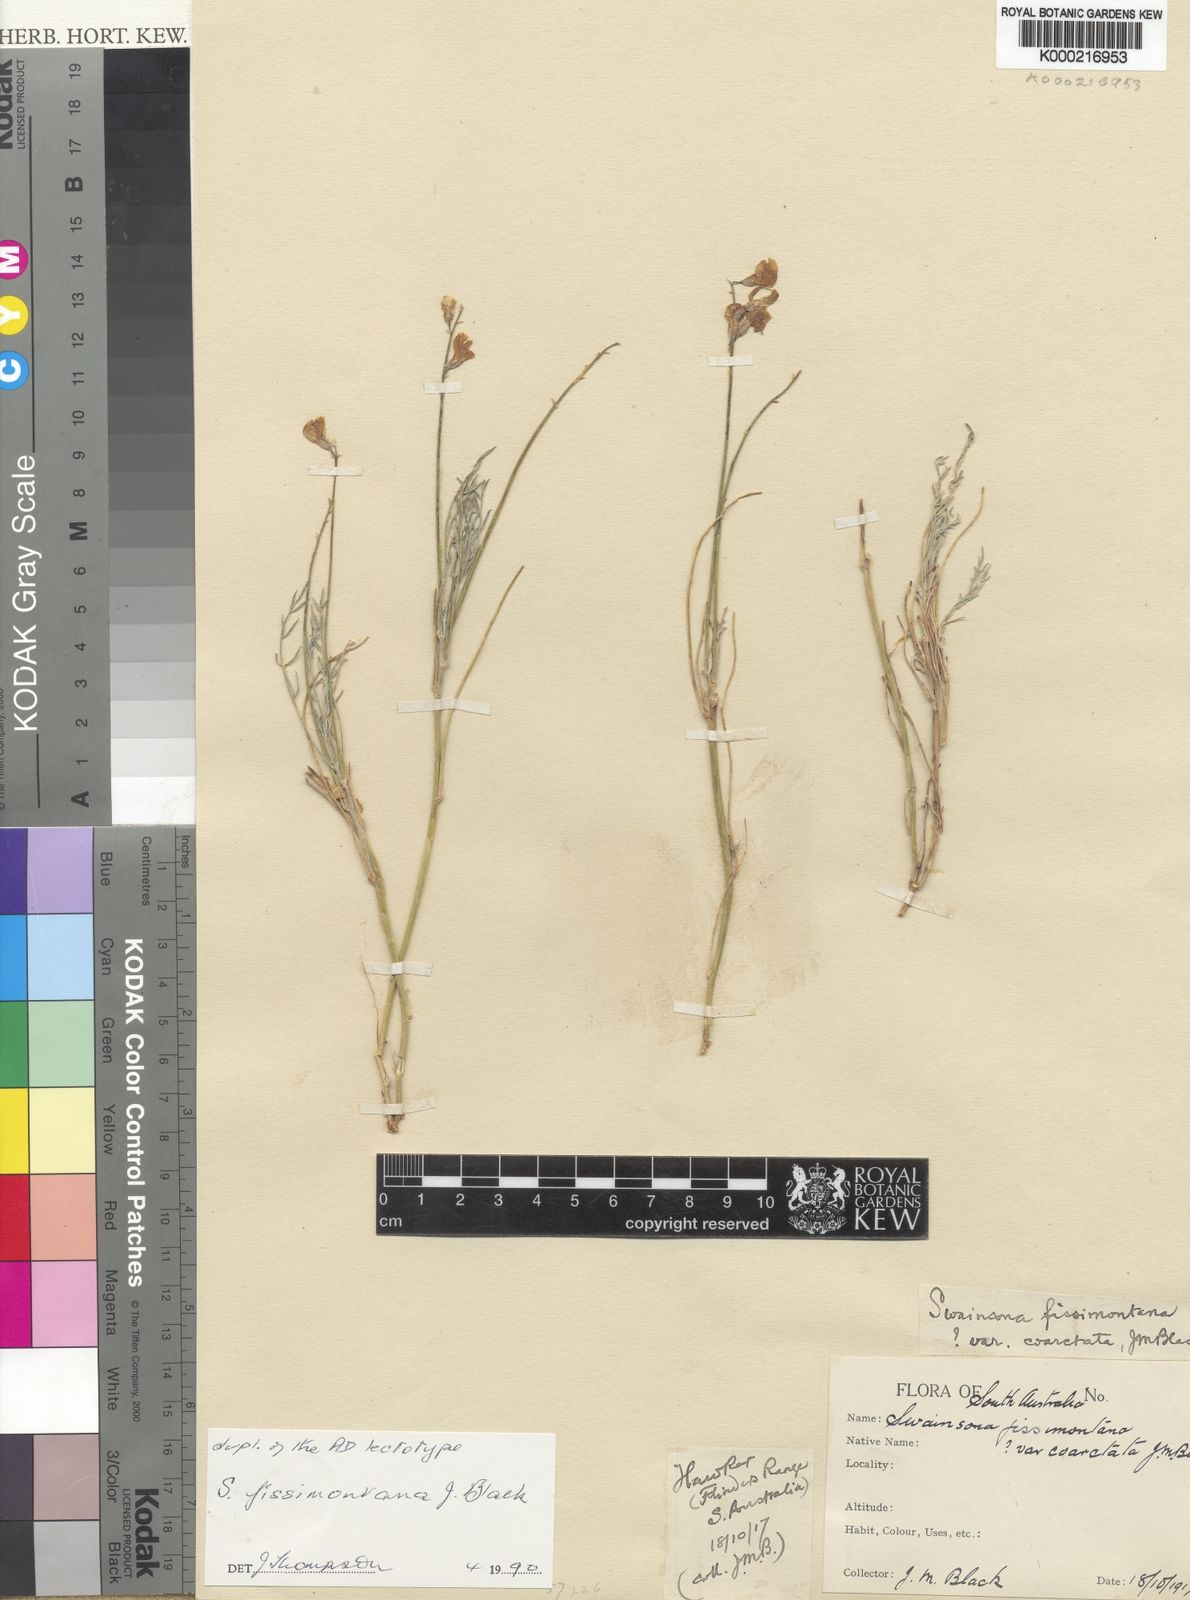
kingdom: Plantae
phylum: Tracheophyta
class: Magnoliopsida
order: Fabales
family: Fabaceae
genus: Swainsona
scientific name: Swainsona fissimontana
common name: Broken hill-pea
